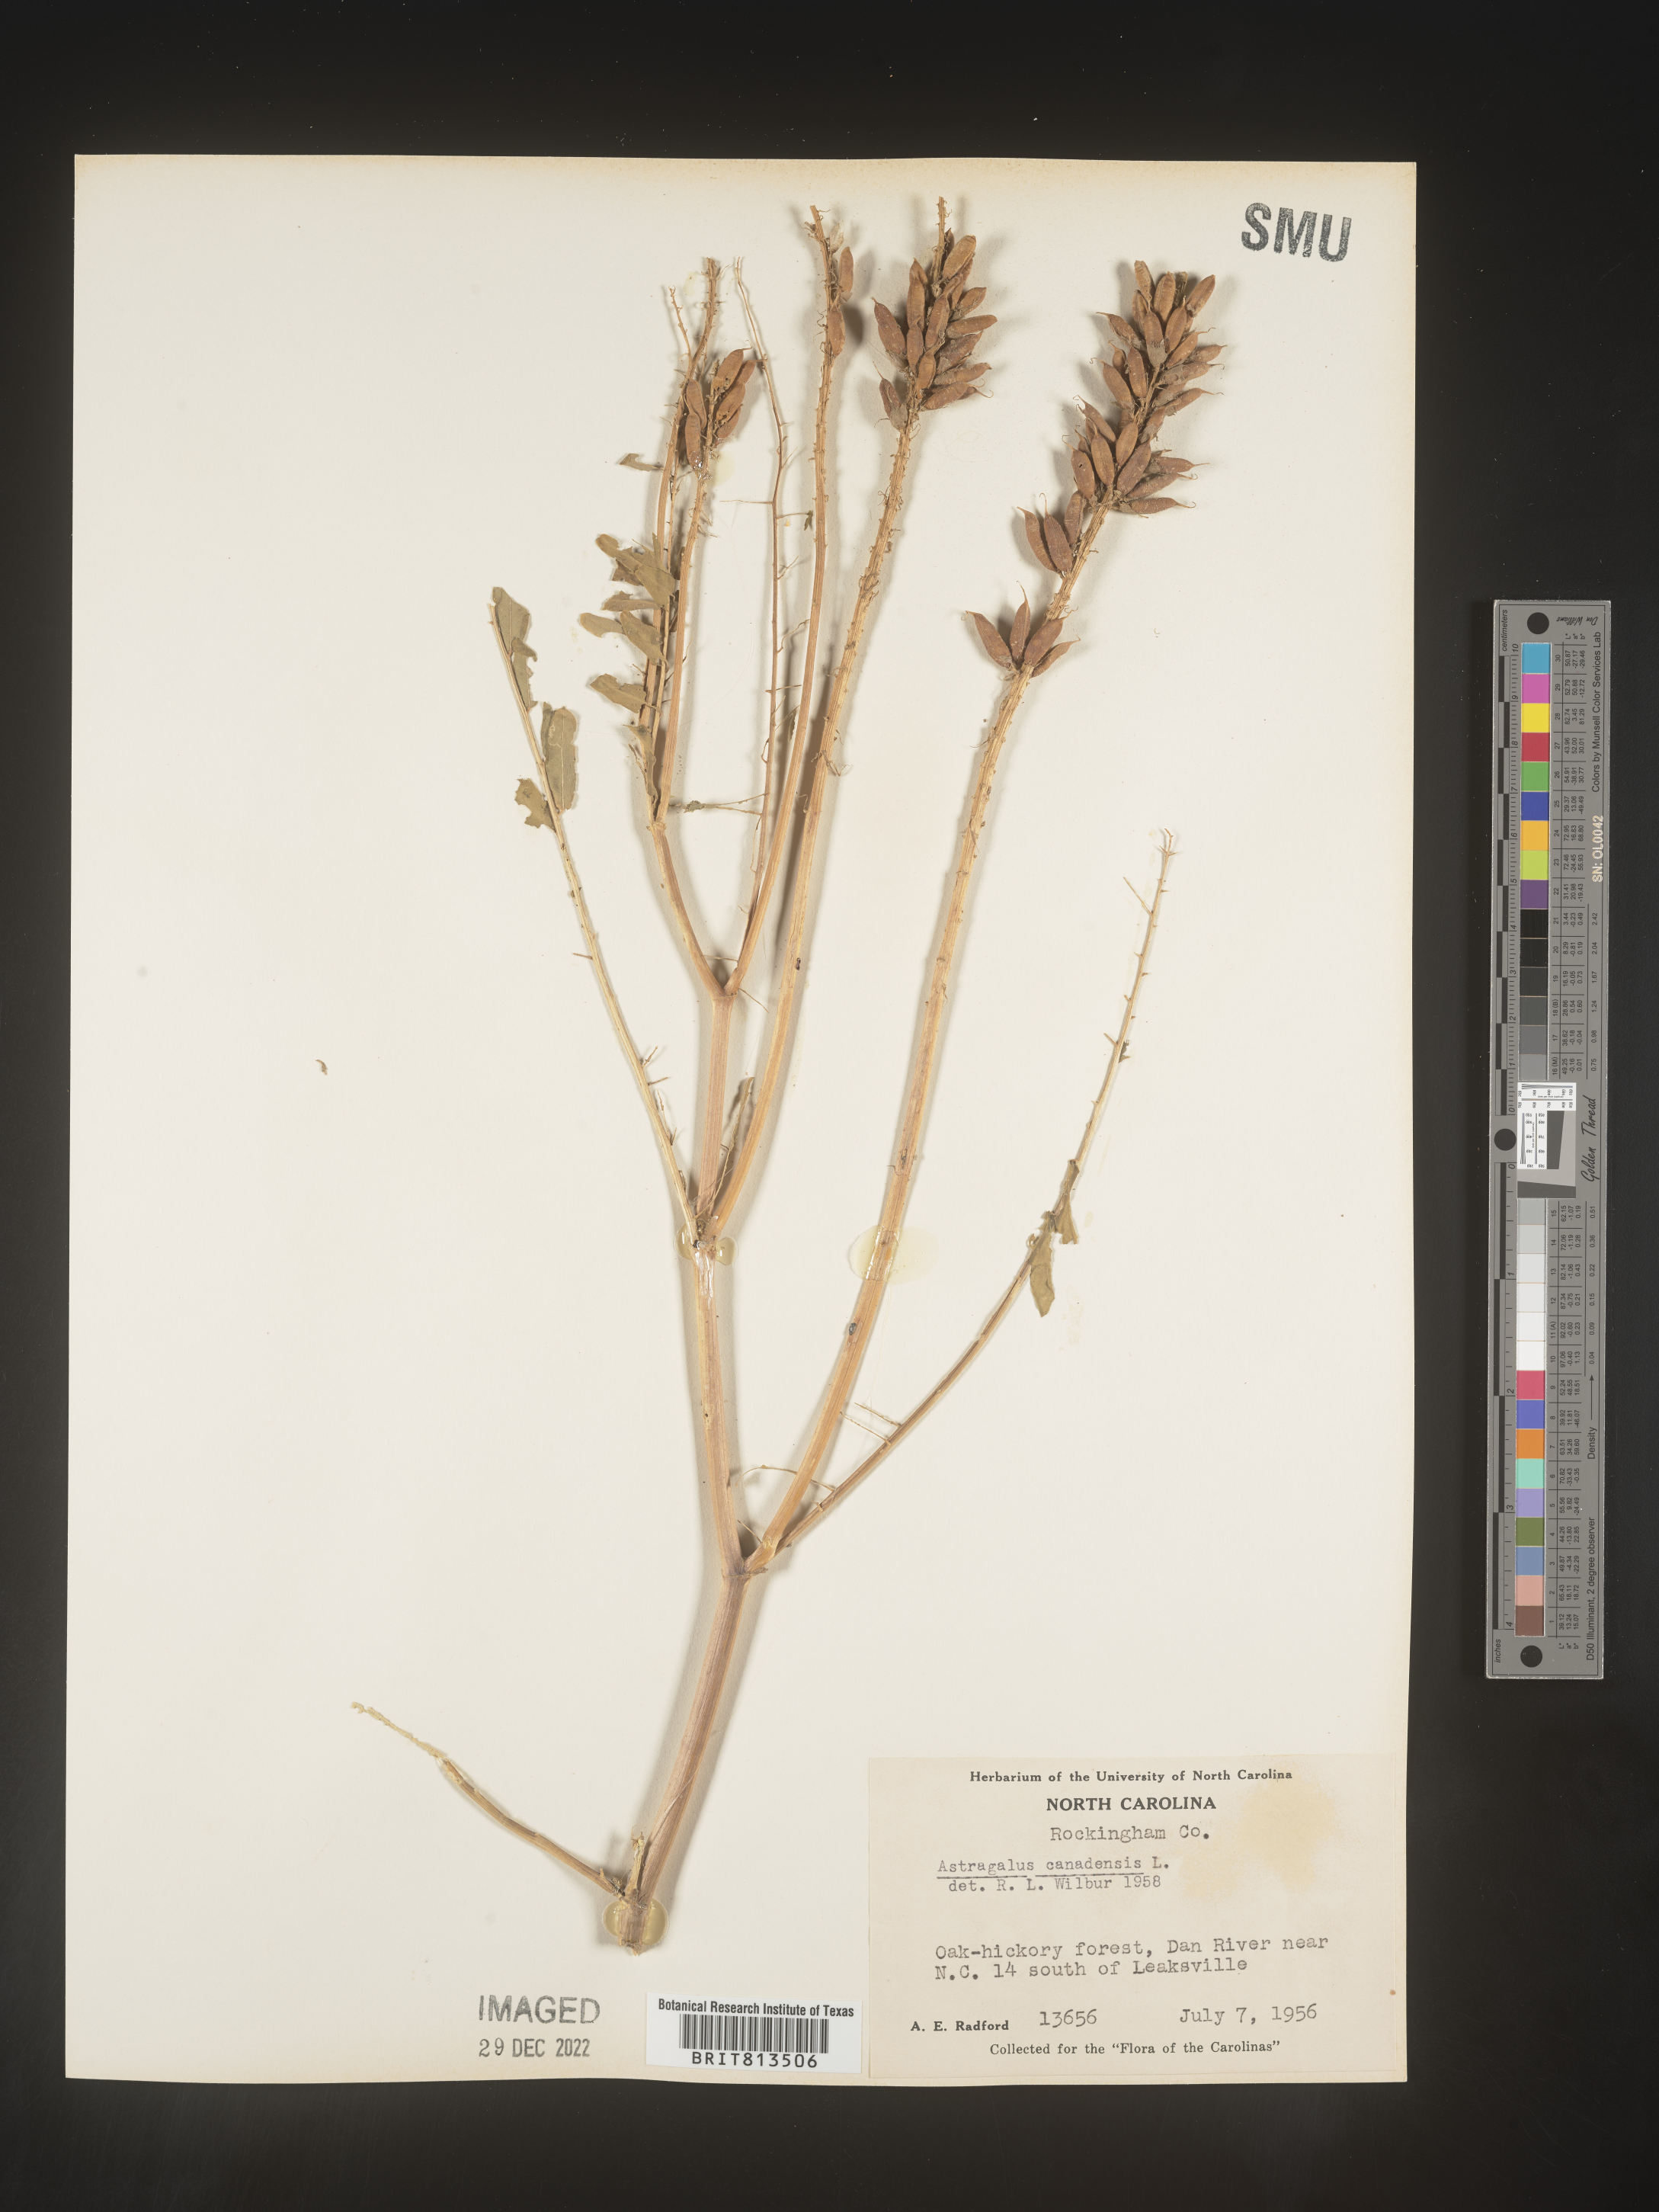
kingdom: Plantae
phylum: Tracheophyta
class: Magnoliopsida
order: Fabales
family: Fabaceae
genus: Astragalus
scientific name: Astragalus canadensis
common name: Canada milk-vetch
